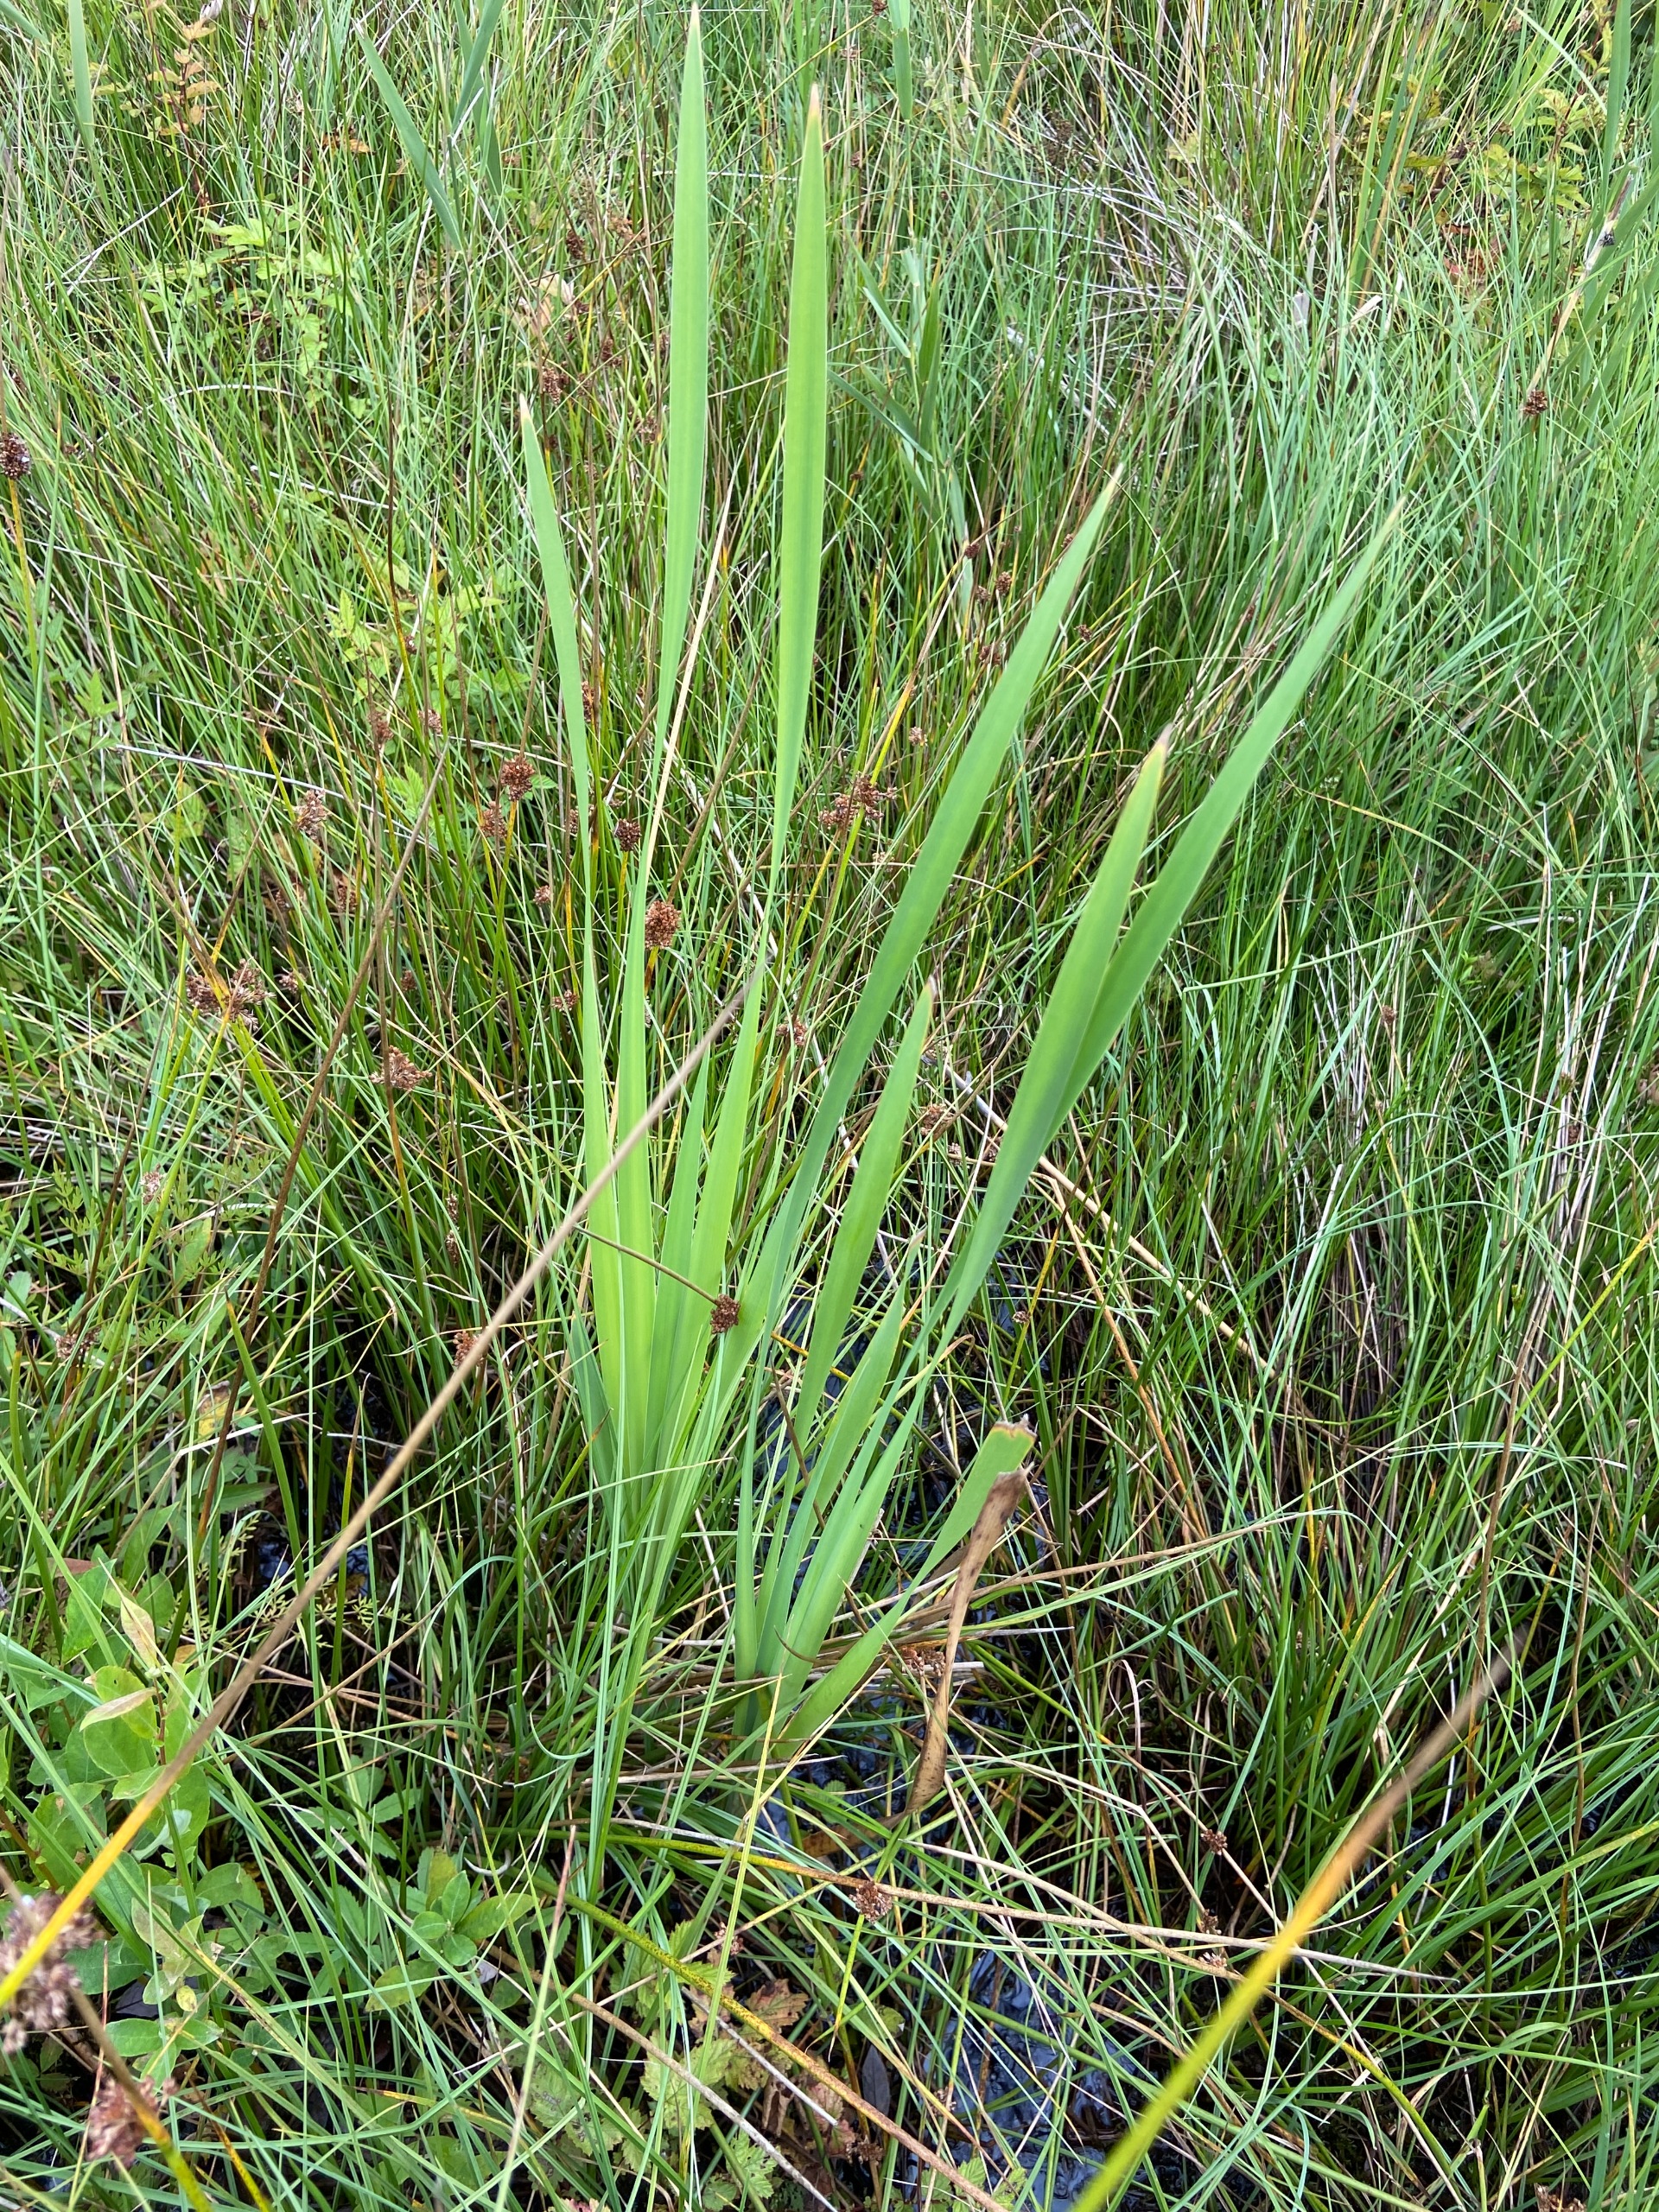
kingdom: Plantae
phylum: Tracheophyta
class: Liliopsida
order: Asparagales
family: Iridaceae
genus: Iris
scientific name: Iris pseudacorus
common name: Gul iris
